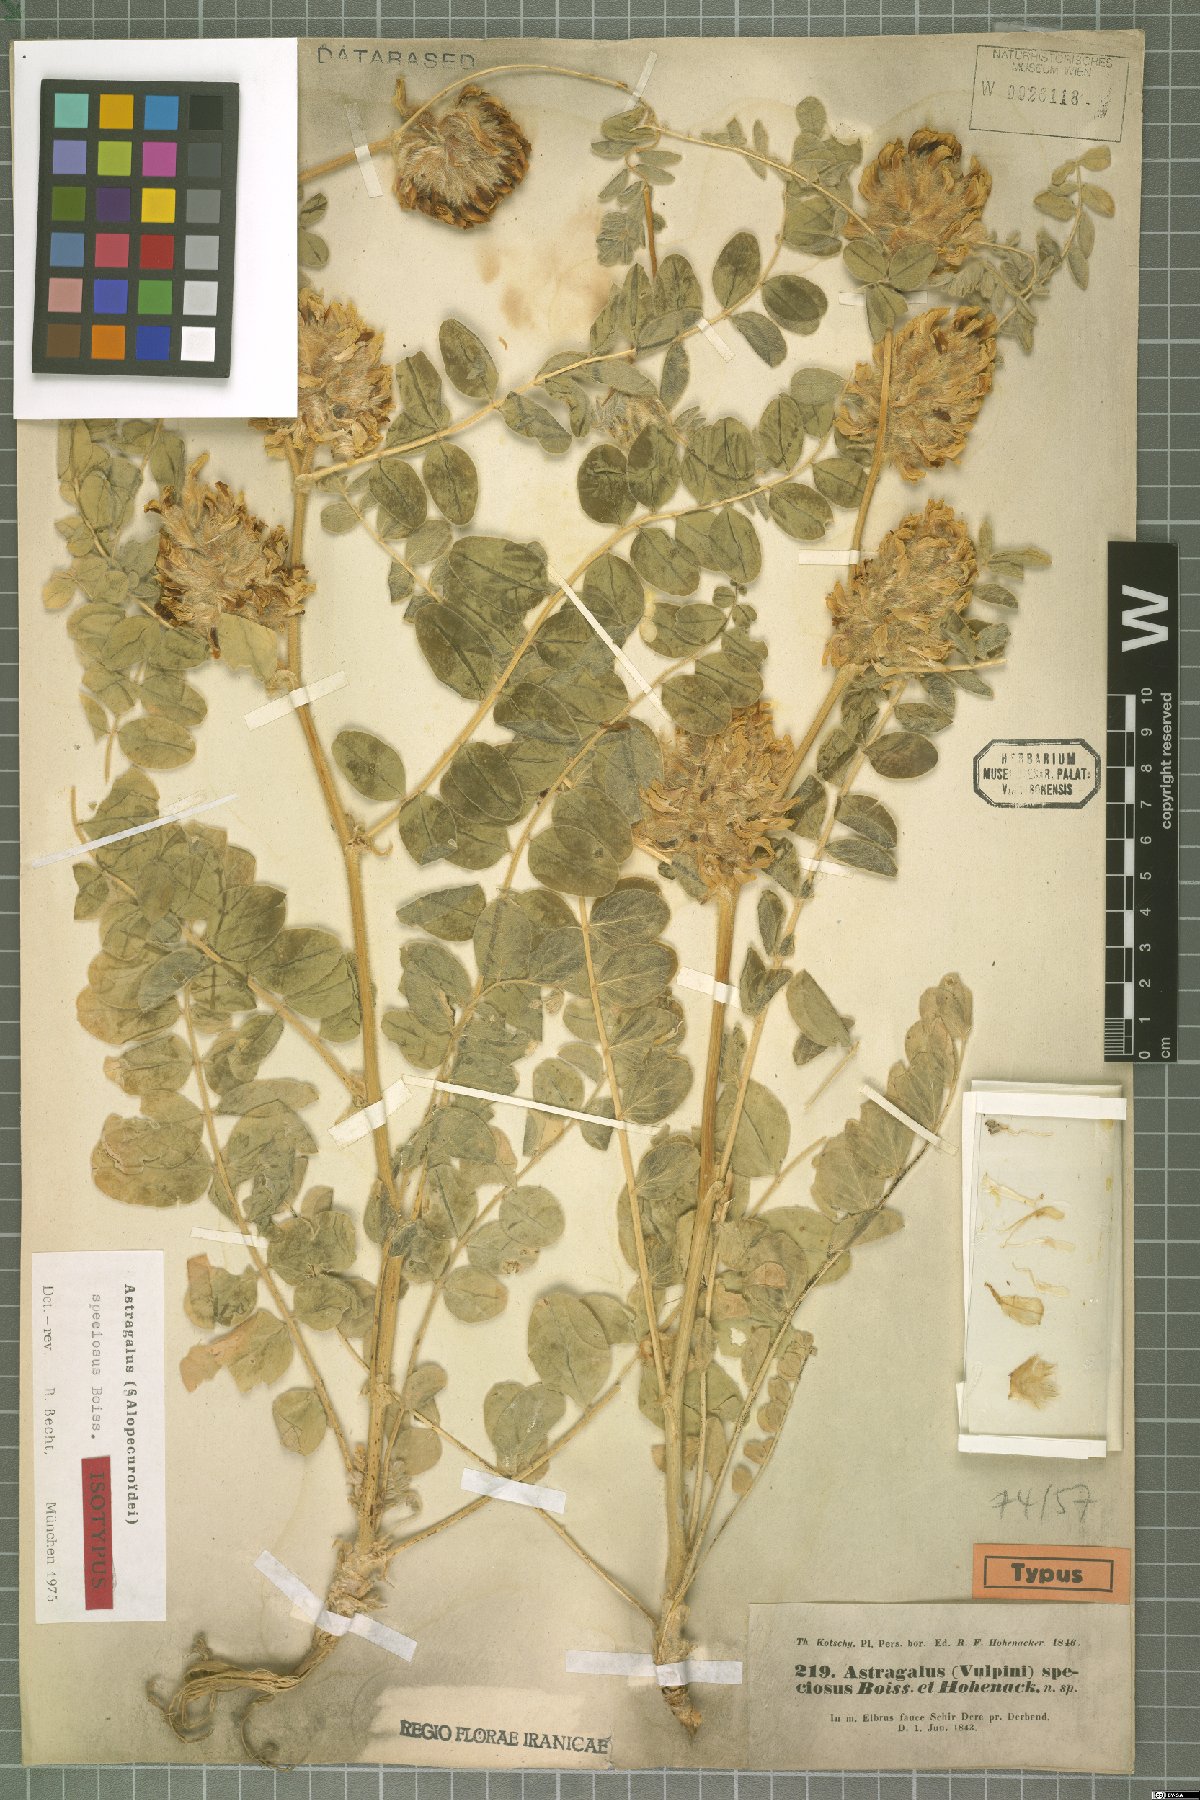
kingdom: Plantae
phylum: Tracheophyta
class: Magnoliopsida
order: Fabales
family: Fabaceae
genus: Astragalus
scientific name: Astragalus speciosus
